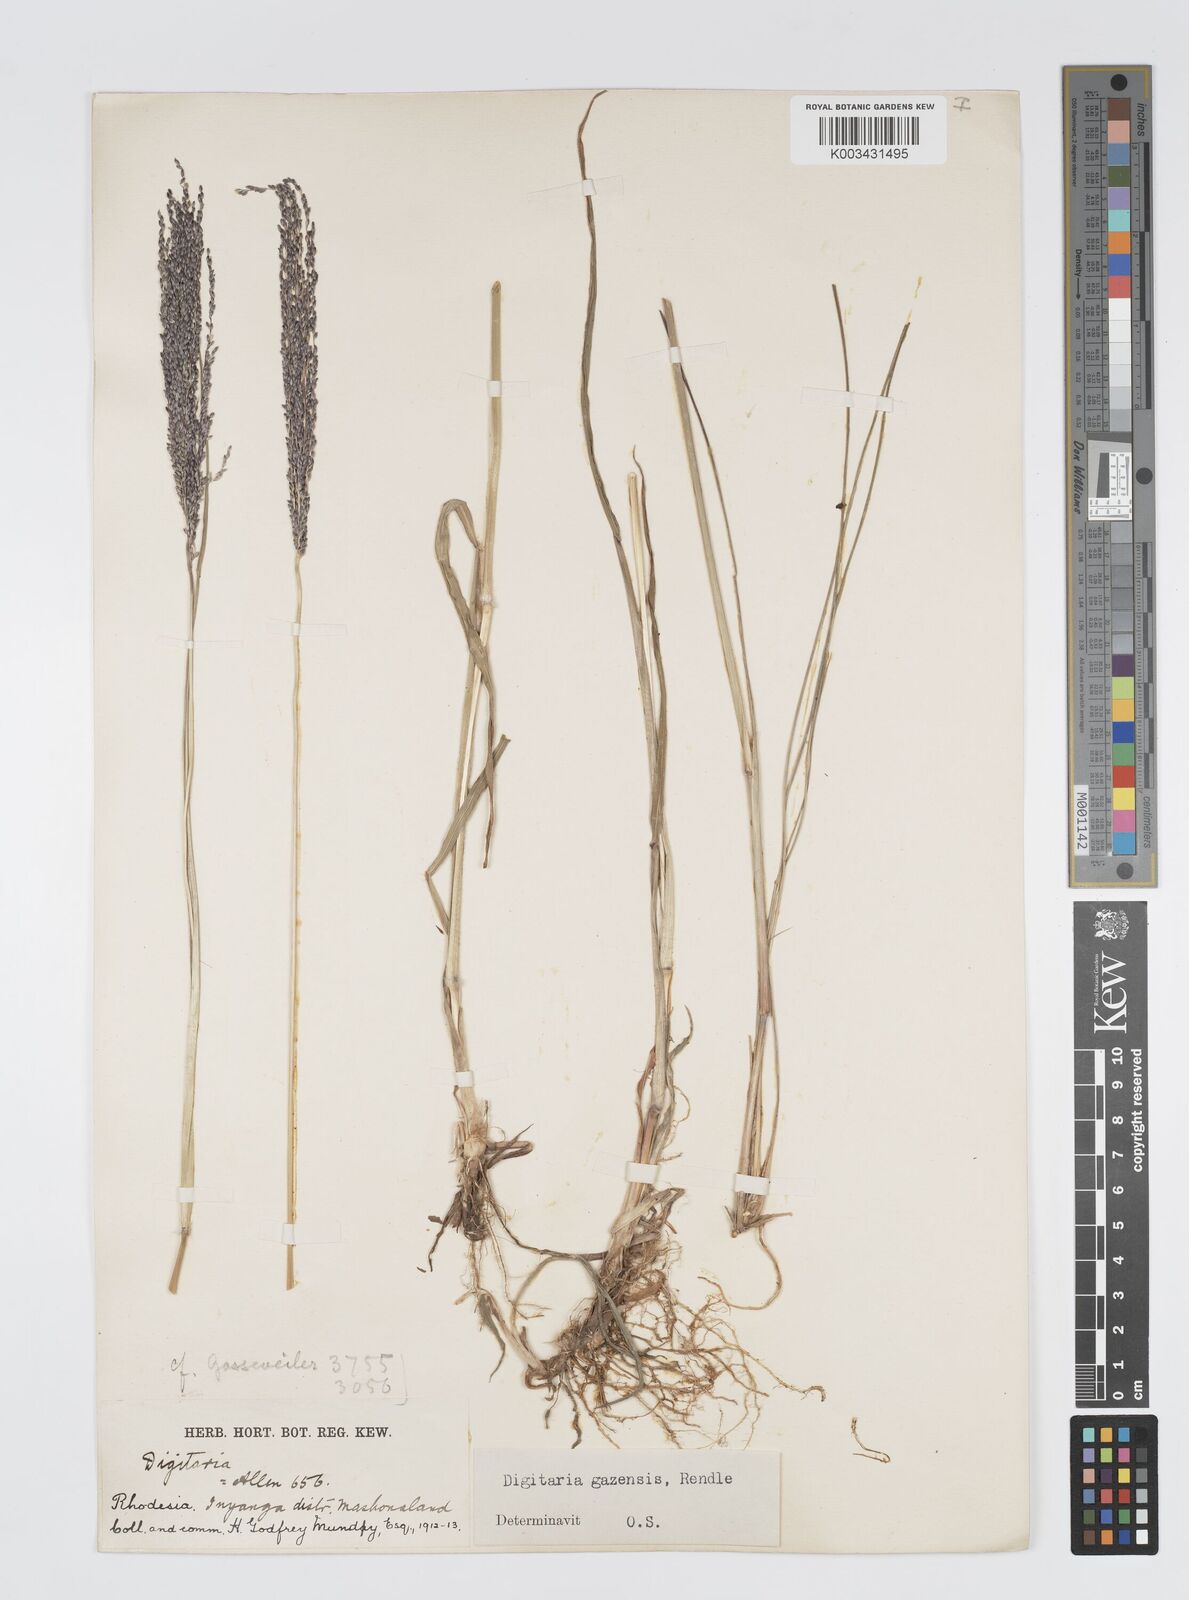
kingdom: Plantae
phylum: Tracheophyta
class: Liliopsida
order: Poales
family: Poaceae
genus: Digitaria
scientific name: Digitaria gazensis
